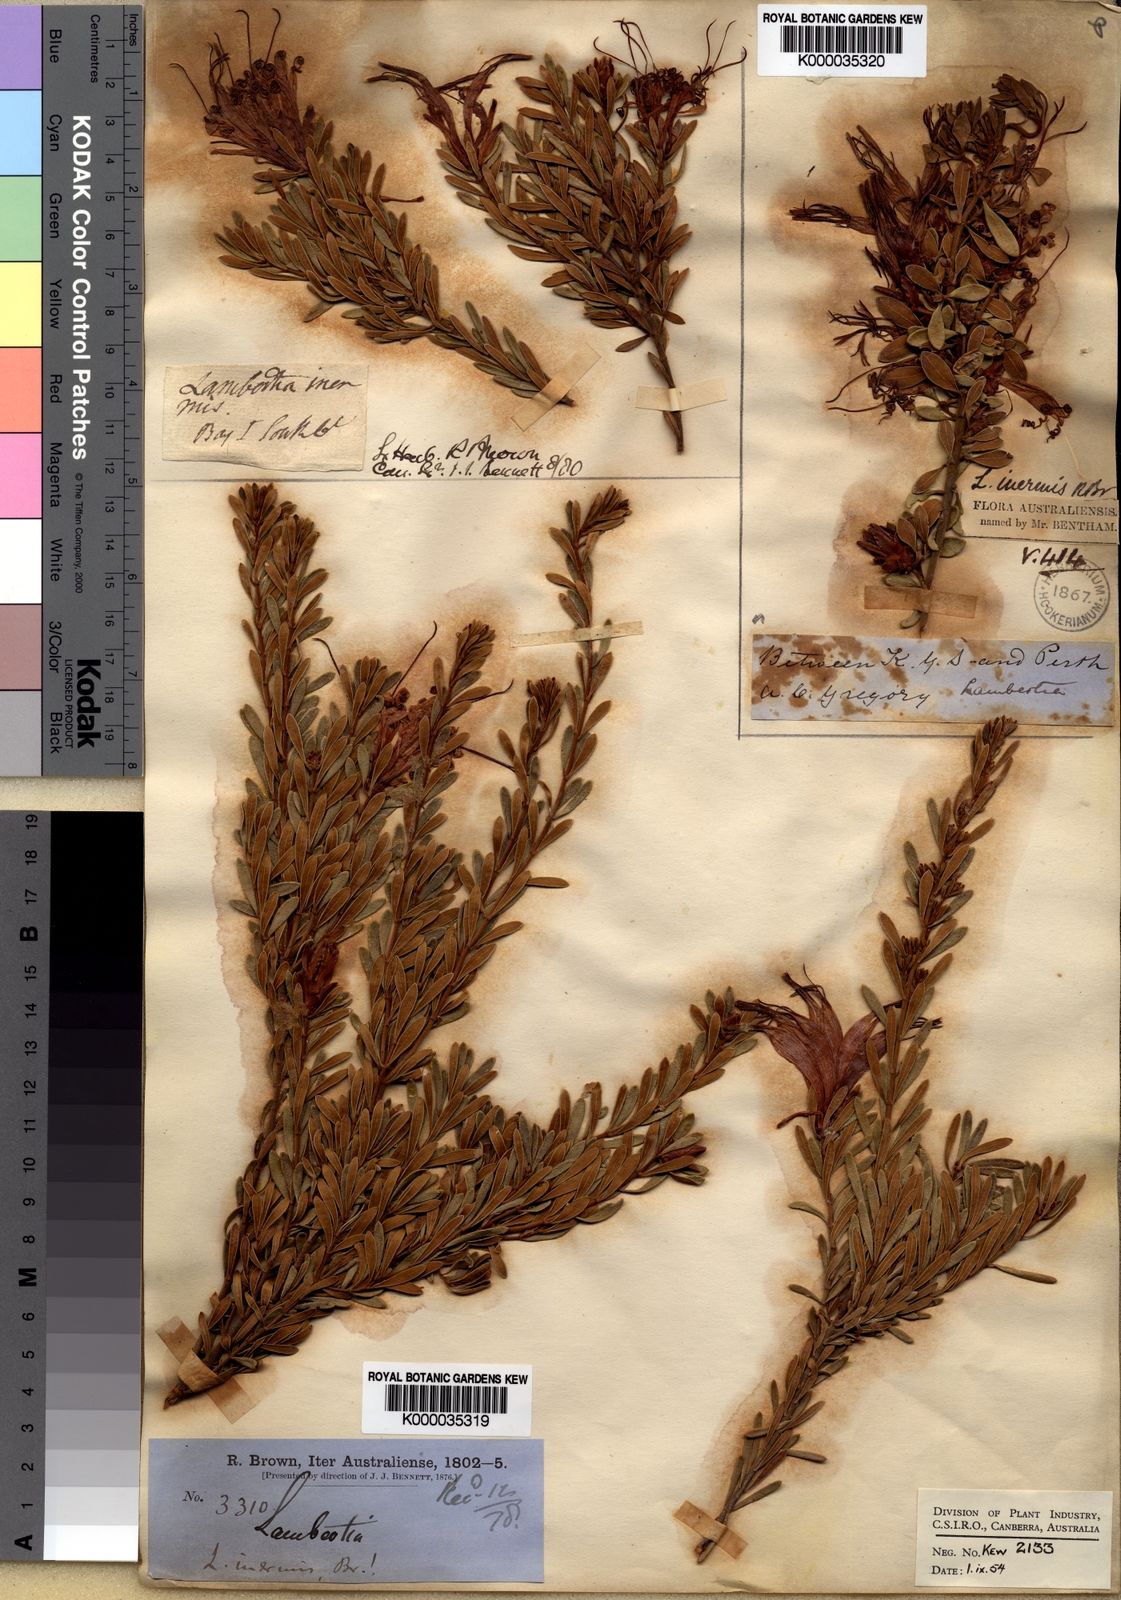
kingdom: Plantae
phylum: Tracheophyta
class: Magnoliopsida
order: Proteales
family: Proteaceae
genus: Lambertia
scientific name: Lambertia inermis
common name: Chittick
